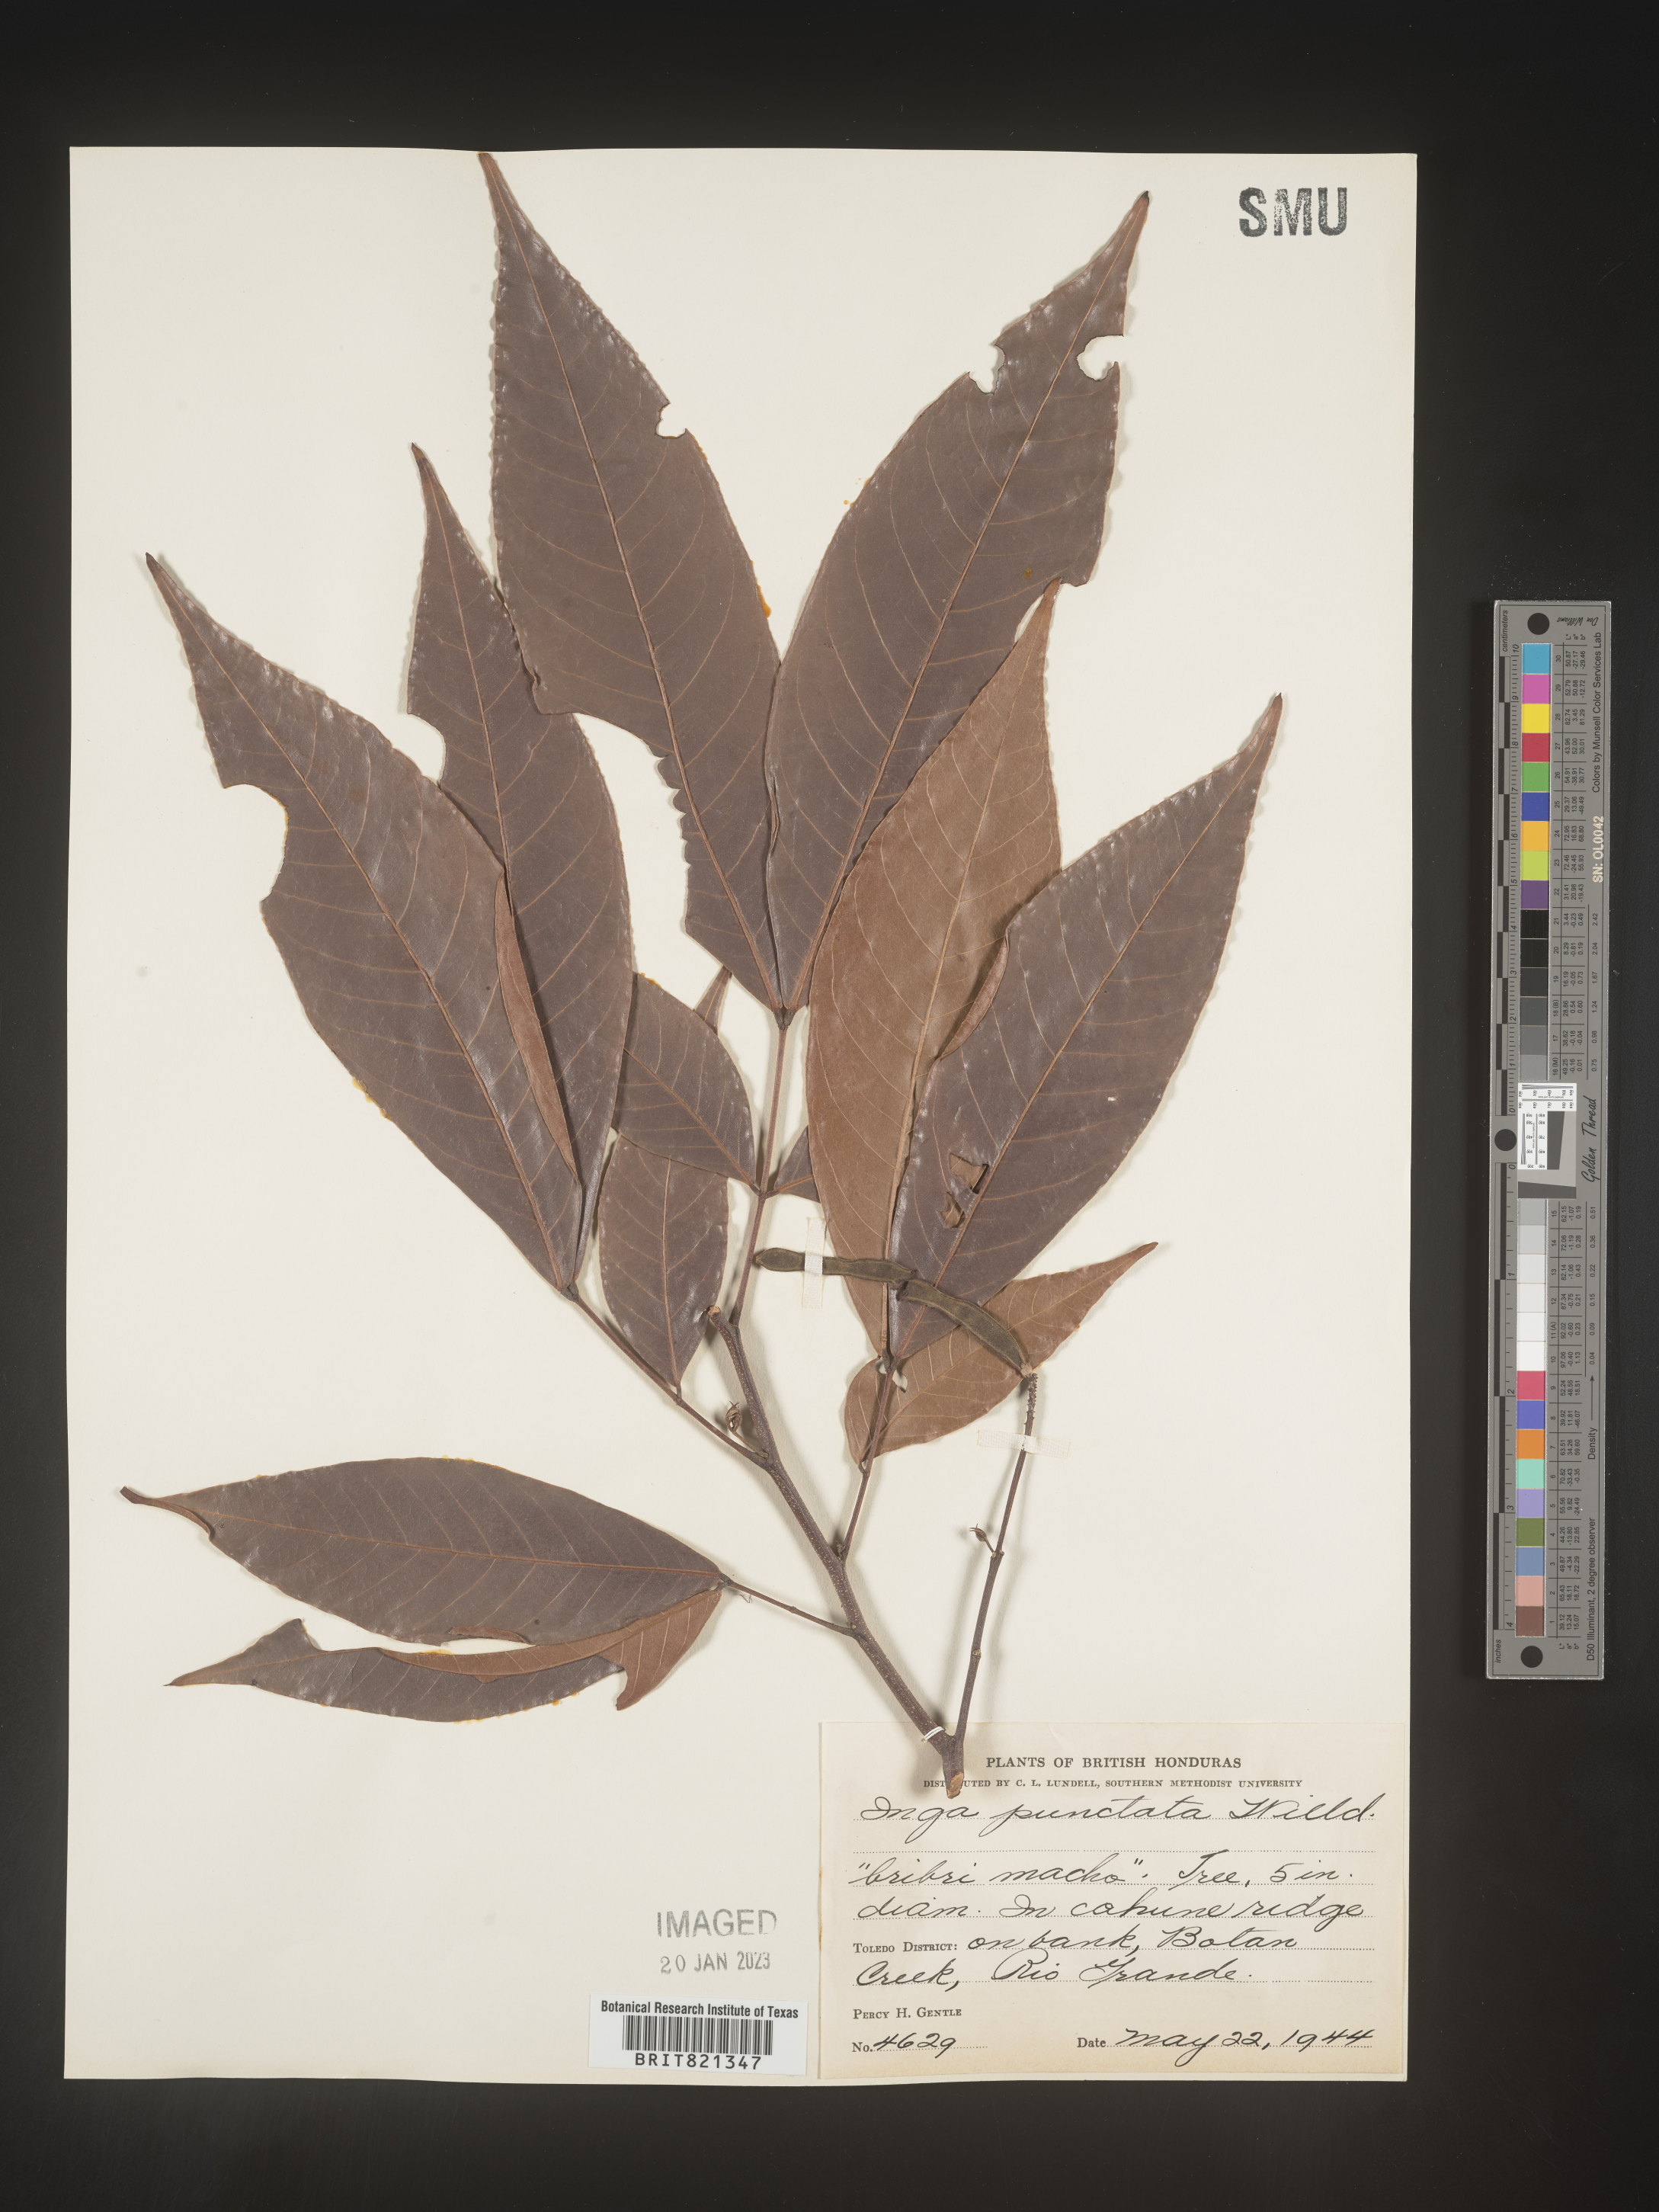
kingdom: Plantae
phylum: Tracheophyta
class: Magnoliopsida
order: Fabales
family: Fabaceae
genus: Inga
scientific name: Inga
